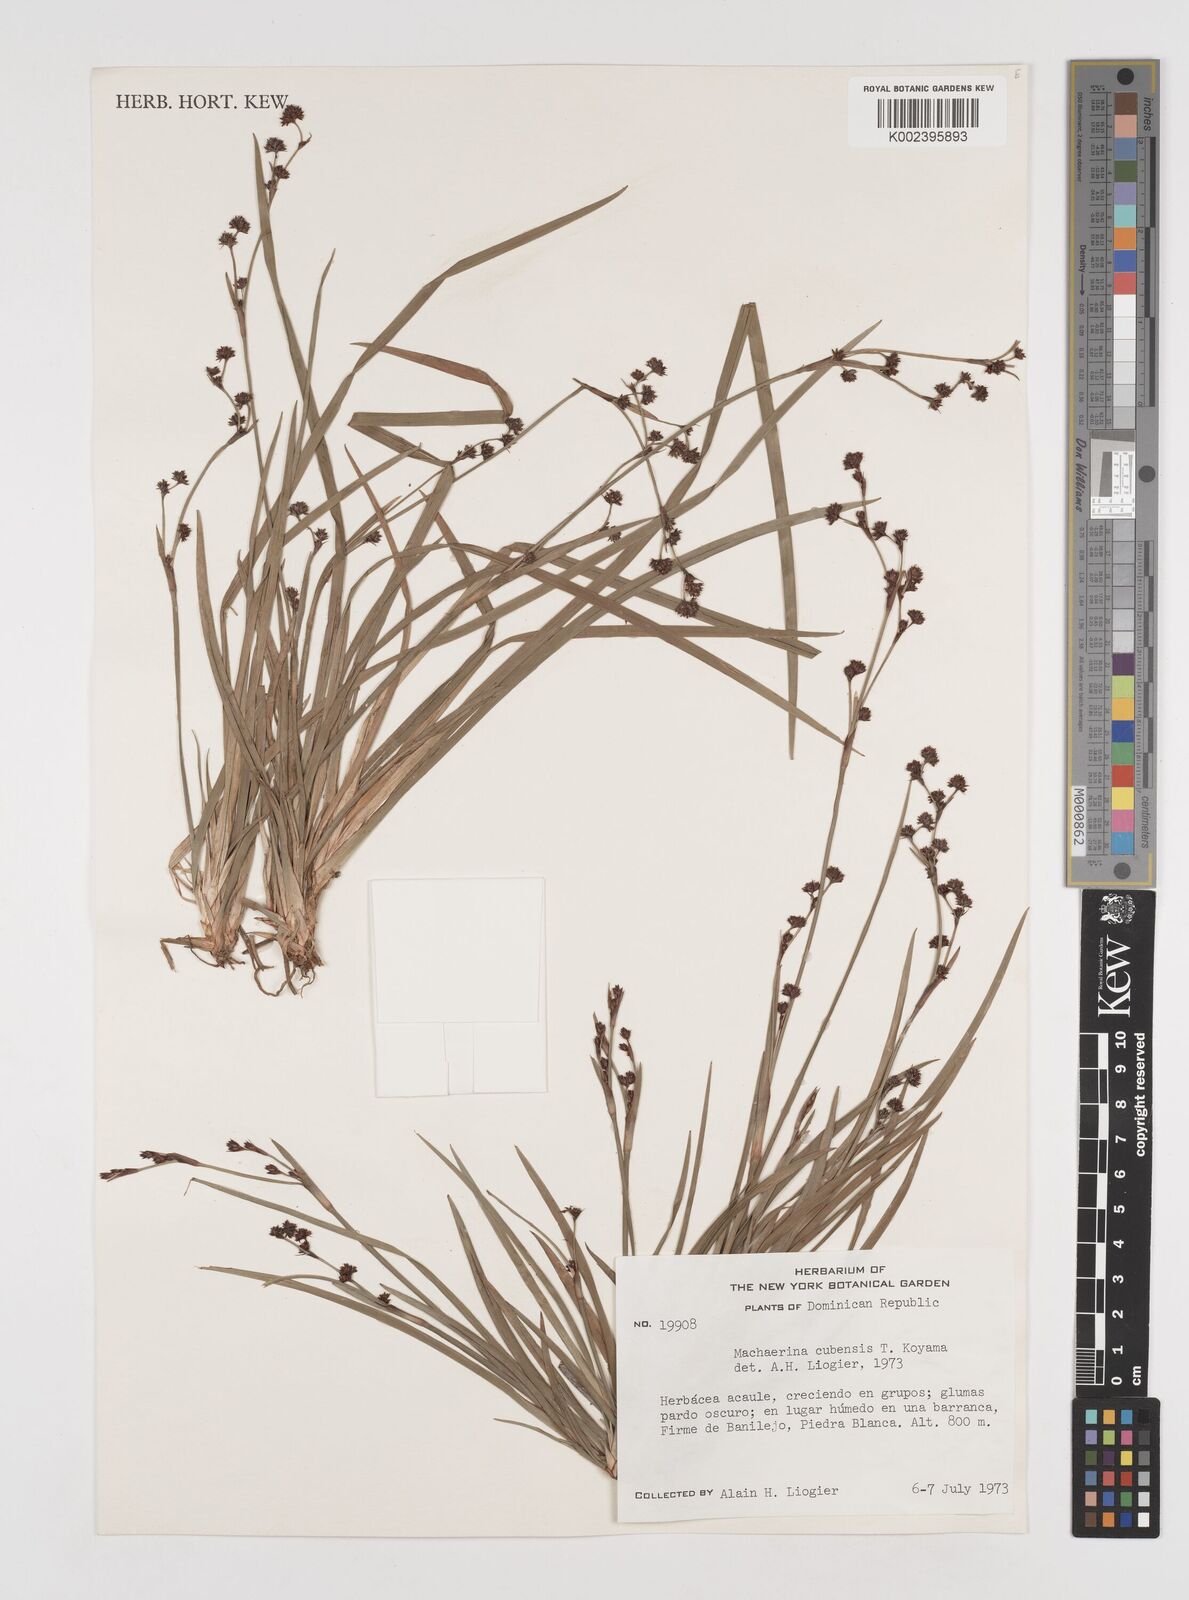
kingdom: Plantae
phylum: Tracheophyta
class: Liliopsida
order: Poales
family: Cyperaceae
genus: Machaerina
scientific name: Machaerina cubensis
